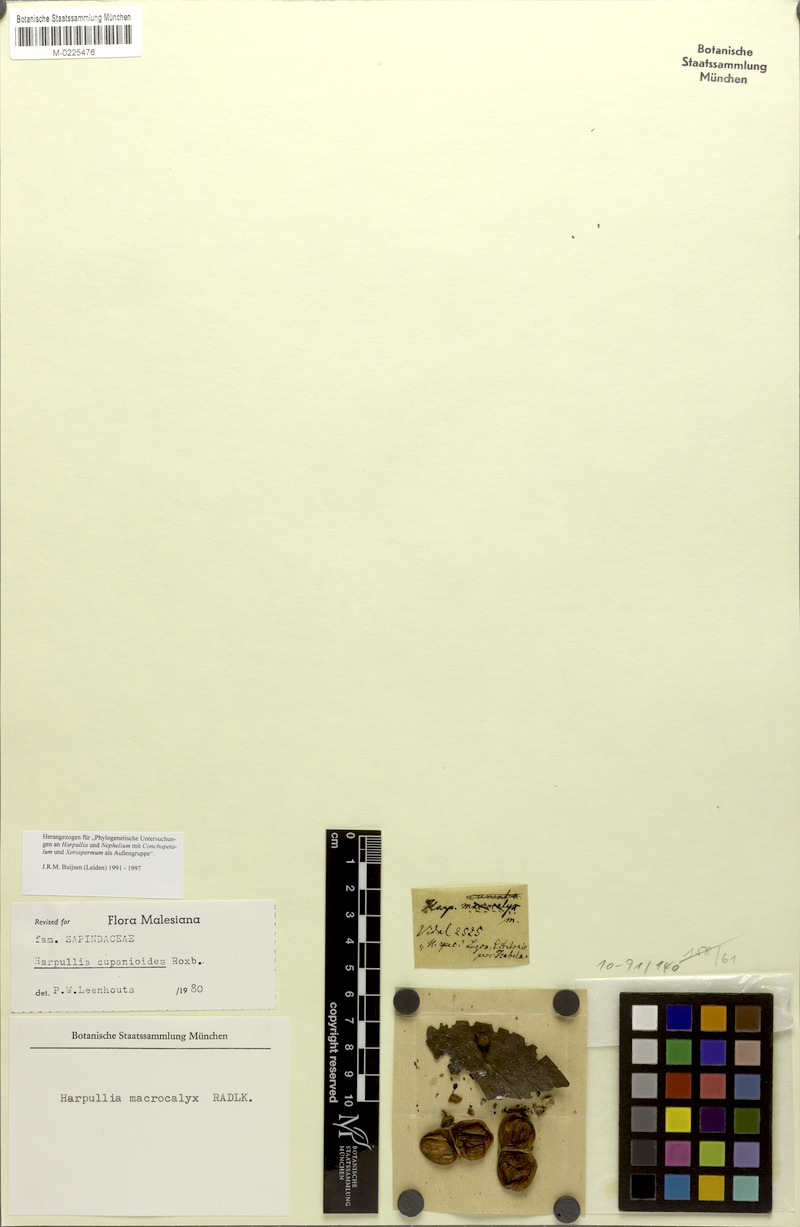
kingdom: Plantae
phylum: Tracheophyta
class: Magnoliopsida
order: Sapindales
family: Sapindaceae
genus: Harpullia
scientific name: Harpullia cupanioides
